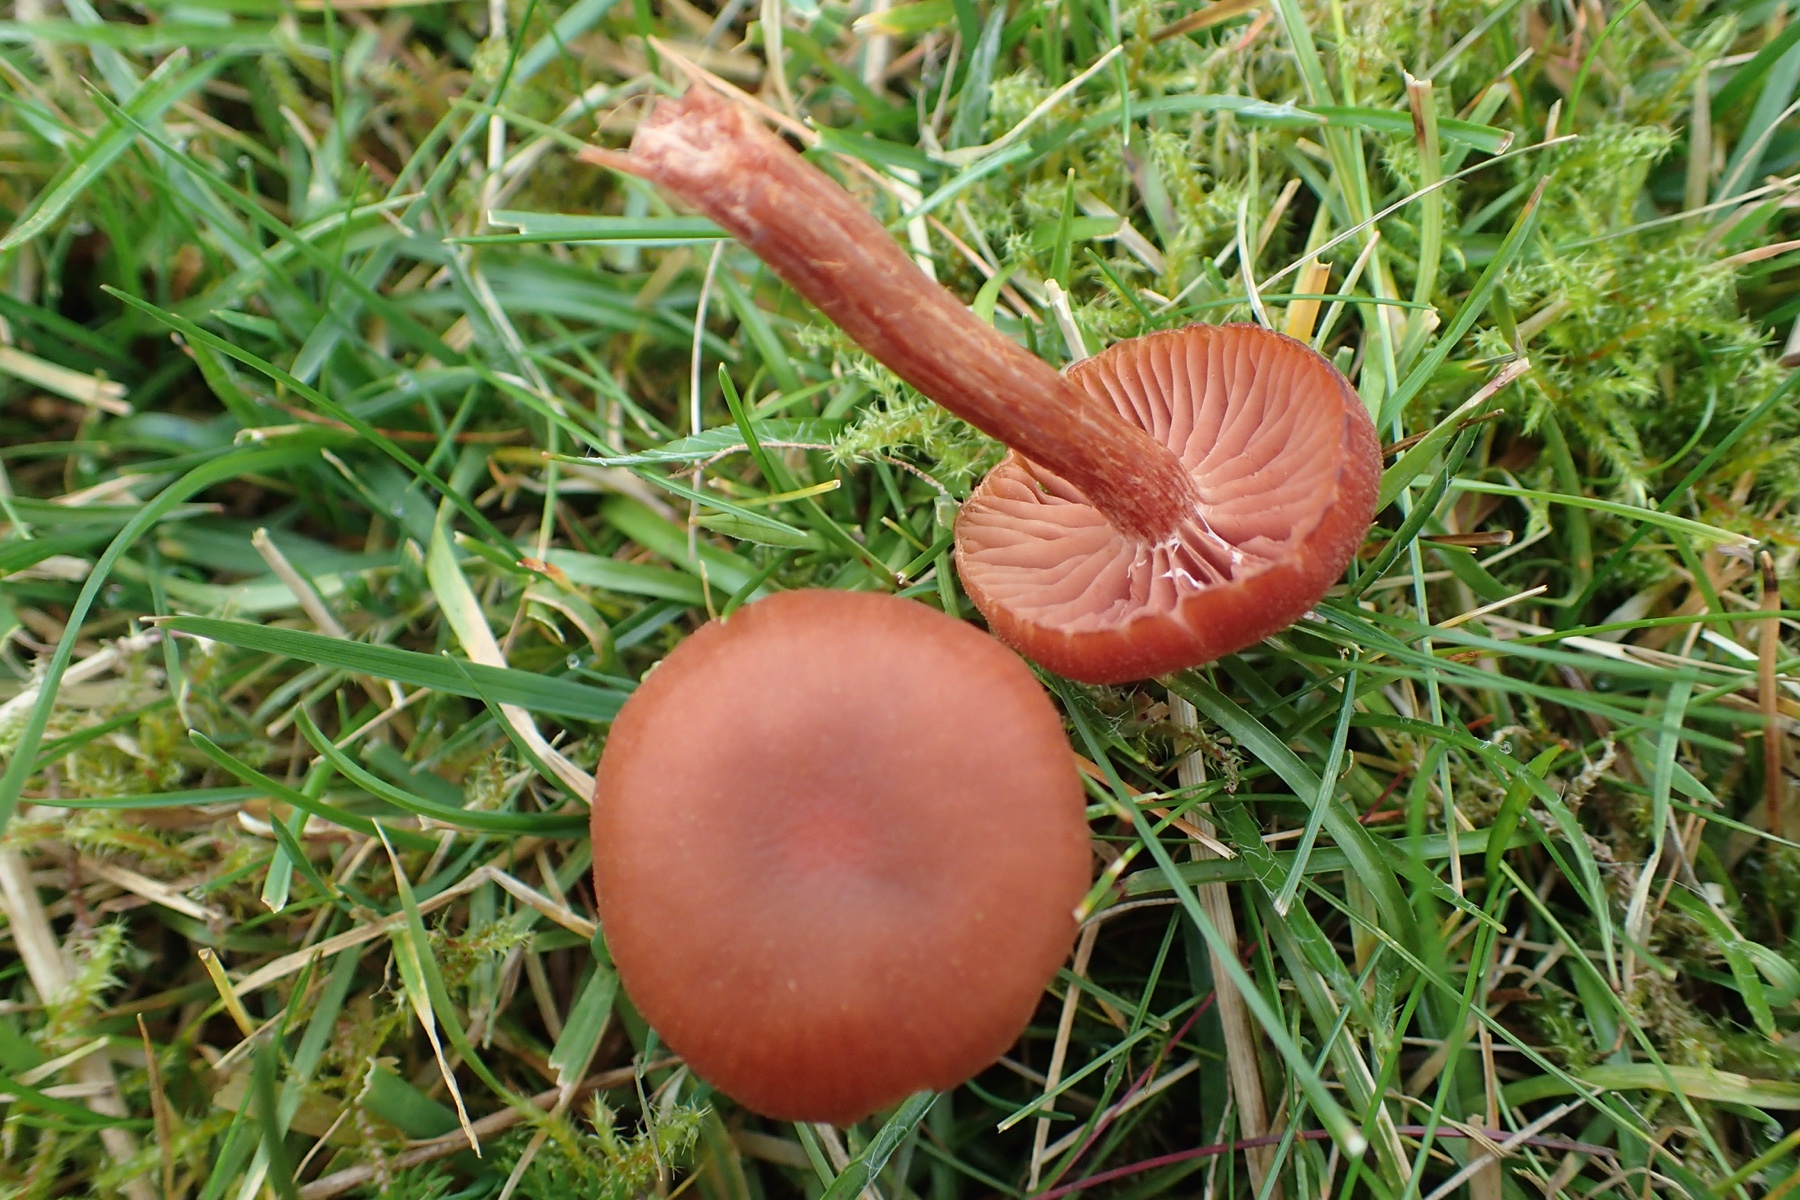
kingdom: Fungi
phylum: Basidiomycota
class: Agaricomycetes
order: Agaricales
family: Hydnangiaceae
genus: Laccaria
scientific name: Laccaria laccata
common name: rød ametysthat
